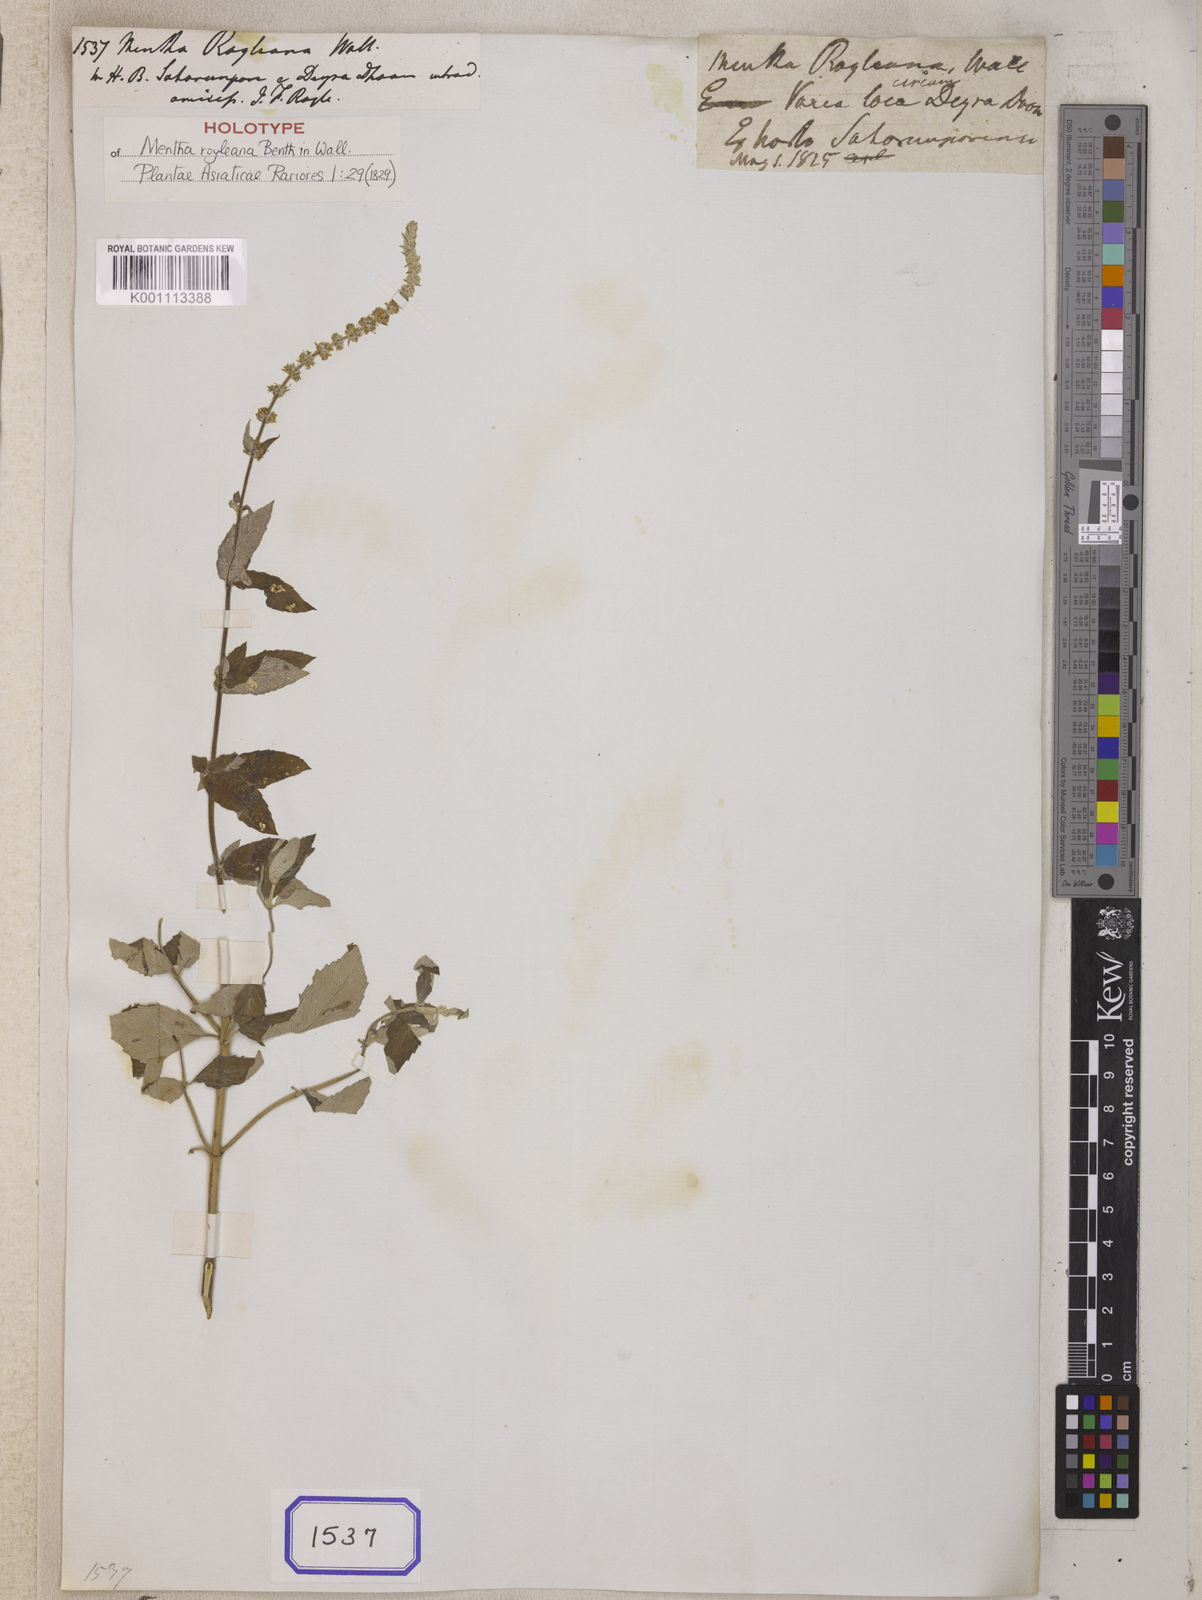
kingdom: Plantae
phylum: Tracheophyta
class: Magnoliopsida
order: Lamiales
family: Lamiaceae
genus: Mentha
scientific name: Mentha
